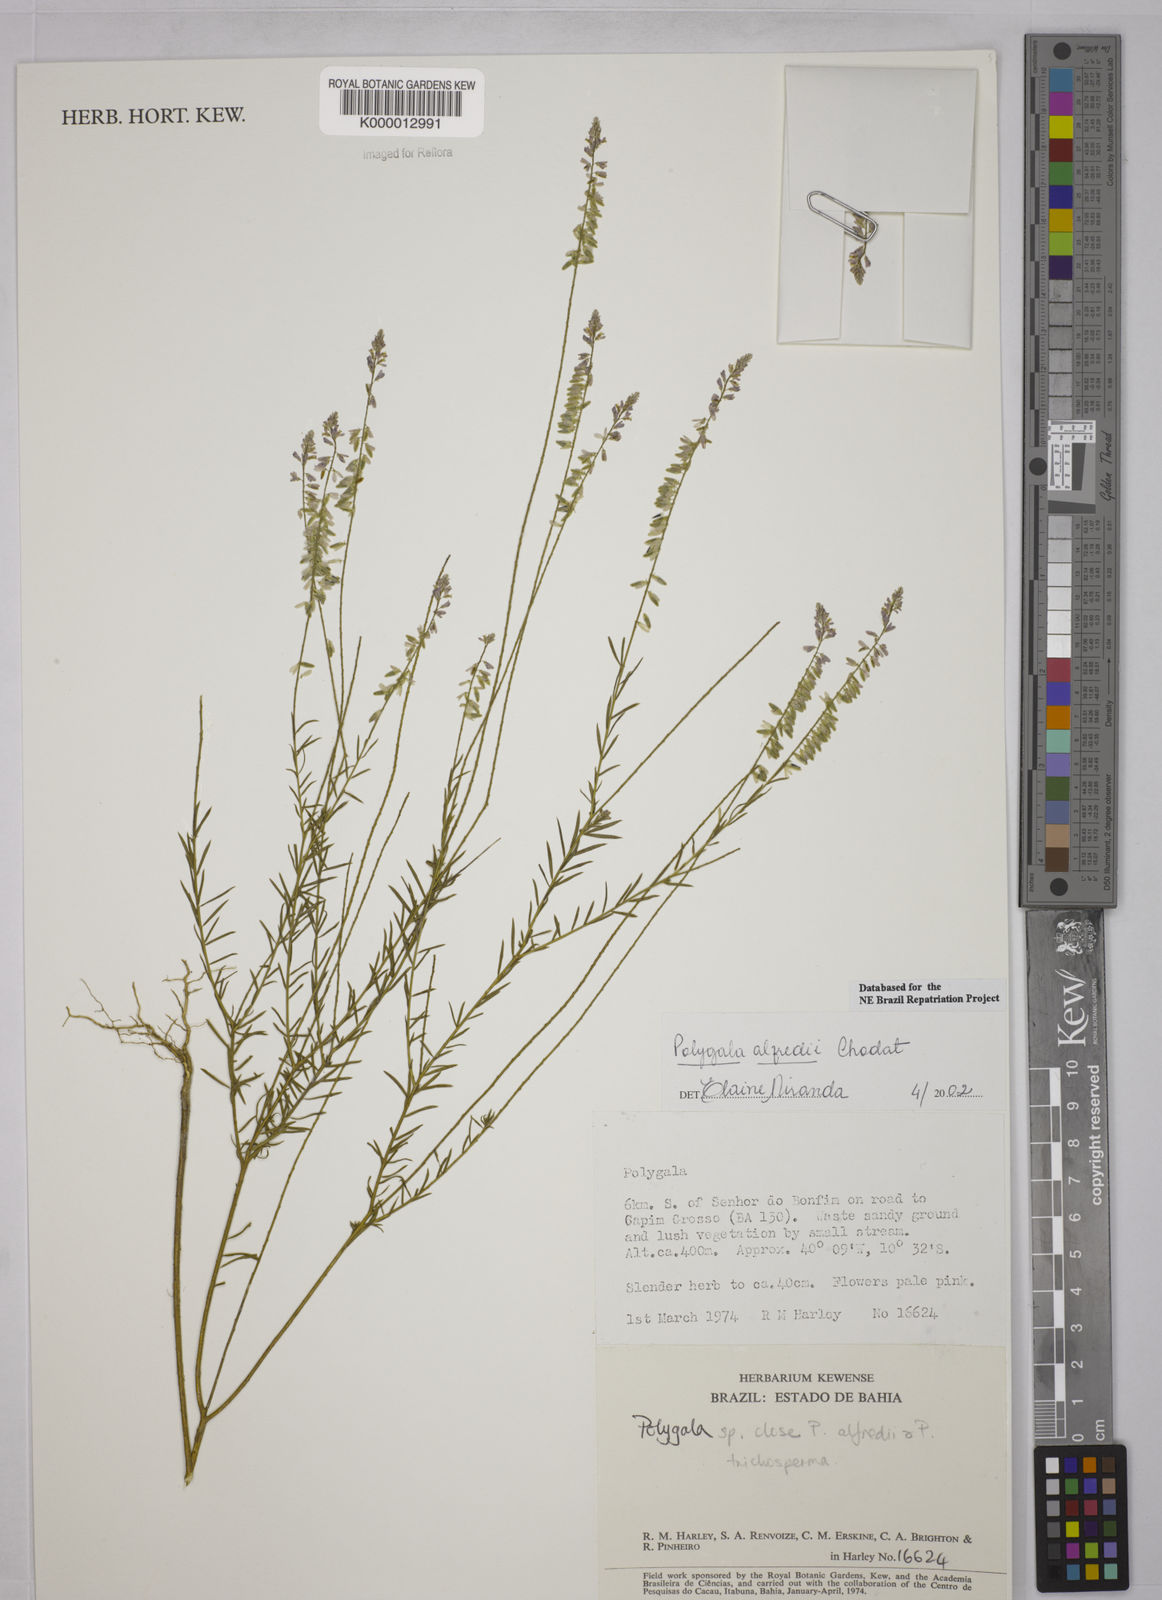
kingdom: Plantae
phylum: Tracheophyta
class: Magnoliopsida
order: Fabales
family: Polygalaceae
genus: Polygala
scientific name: Polygala boliviensis
